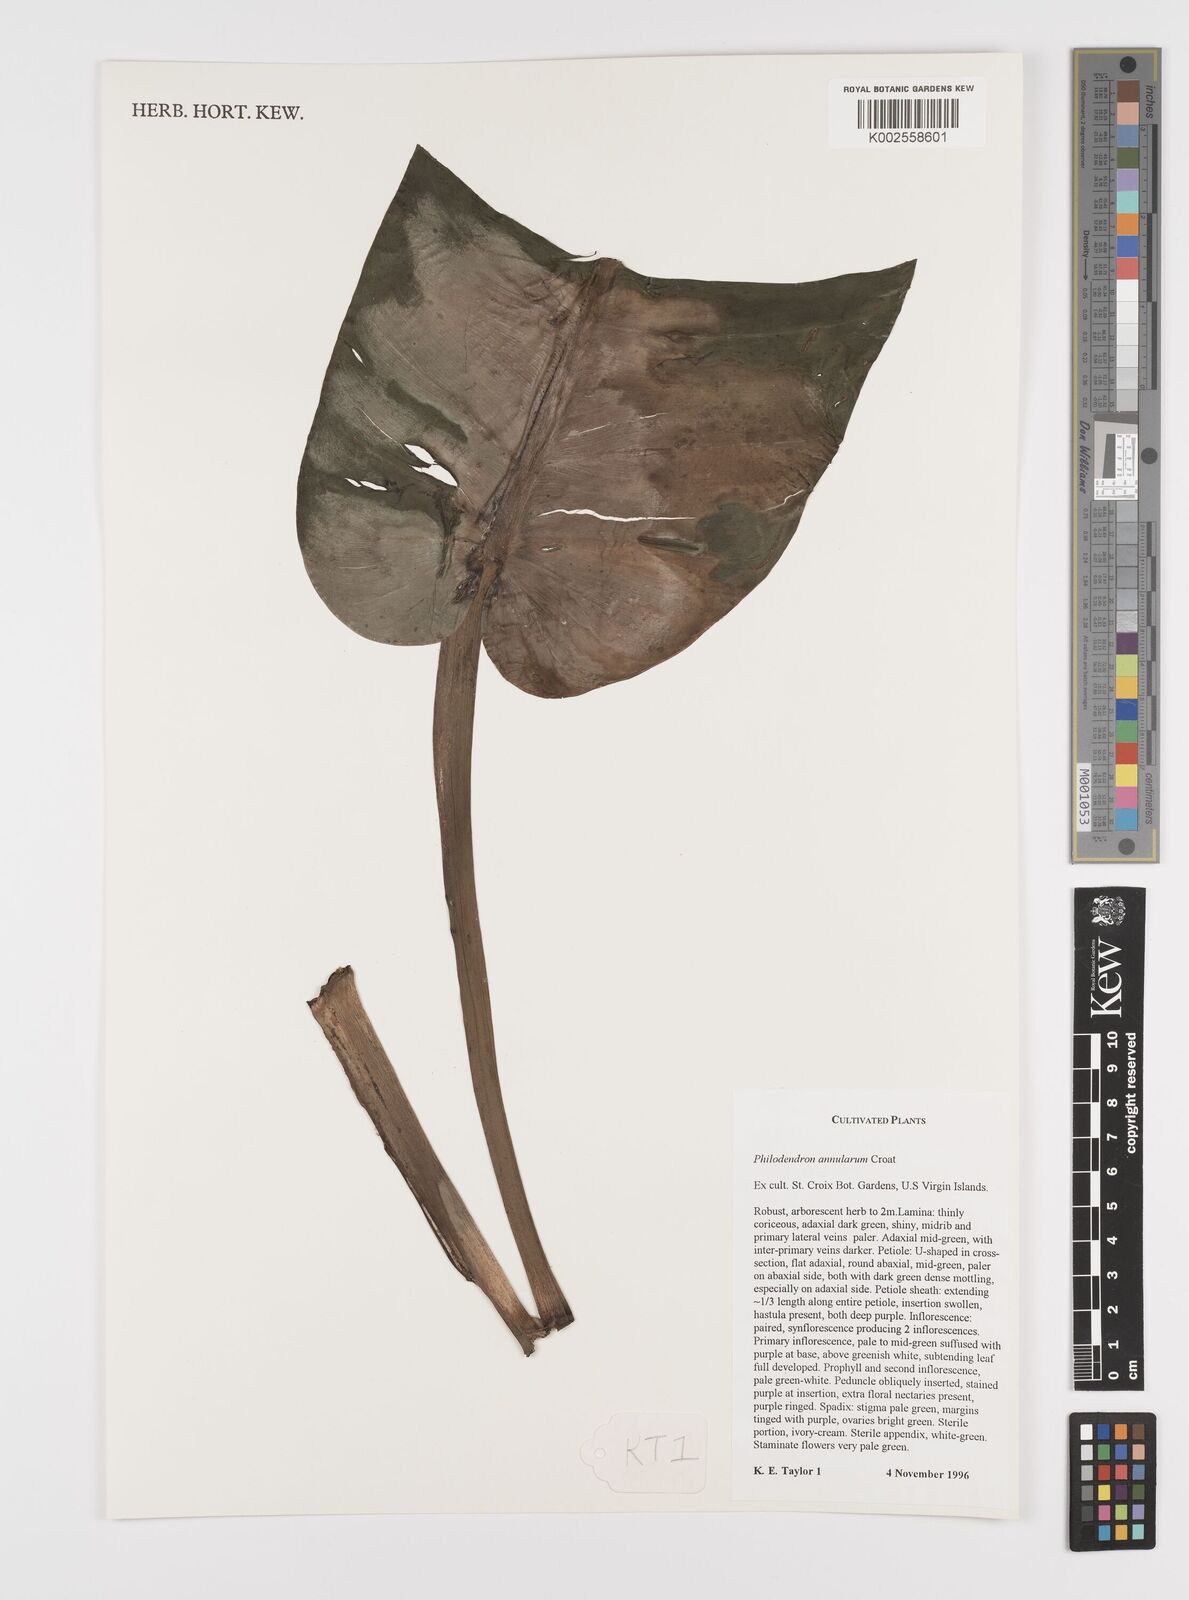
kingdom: Plantae
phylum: Tracheophyta
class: Liliopsida
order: Alismatales
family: Araceae
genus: Philodendron
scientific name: Philodendron annulatum
